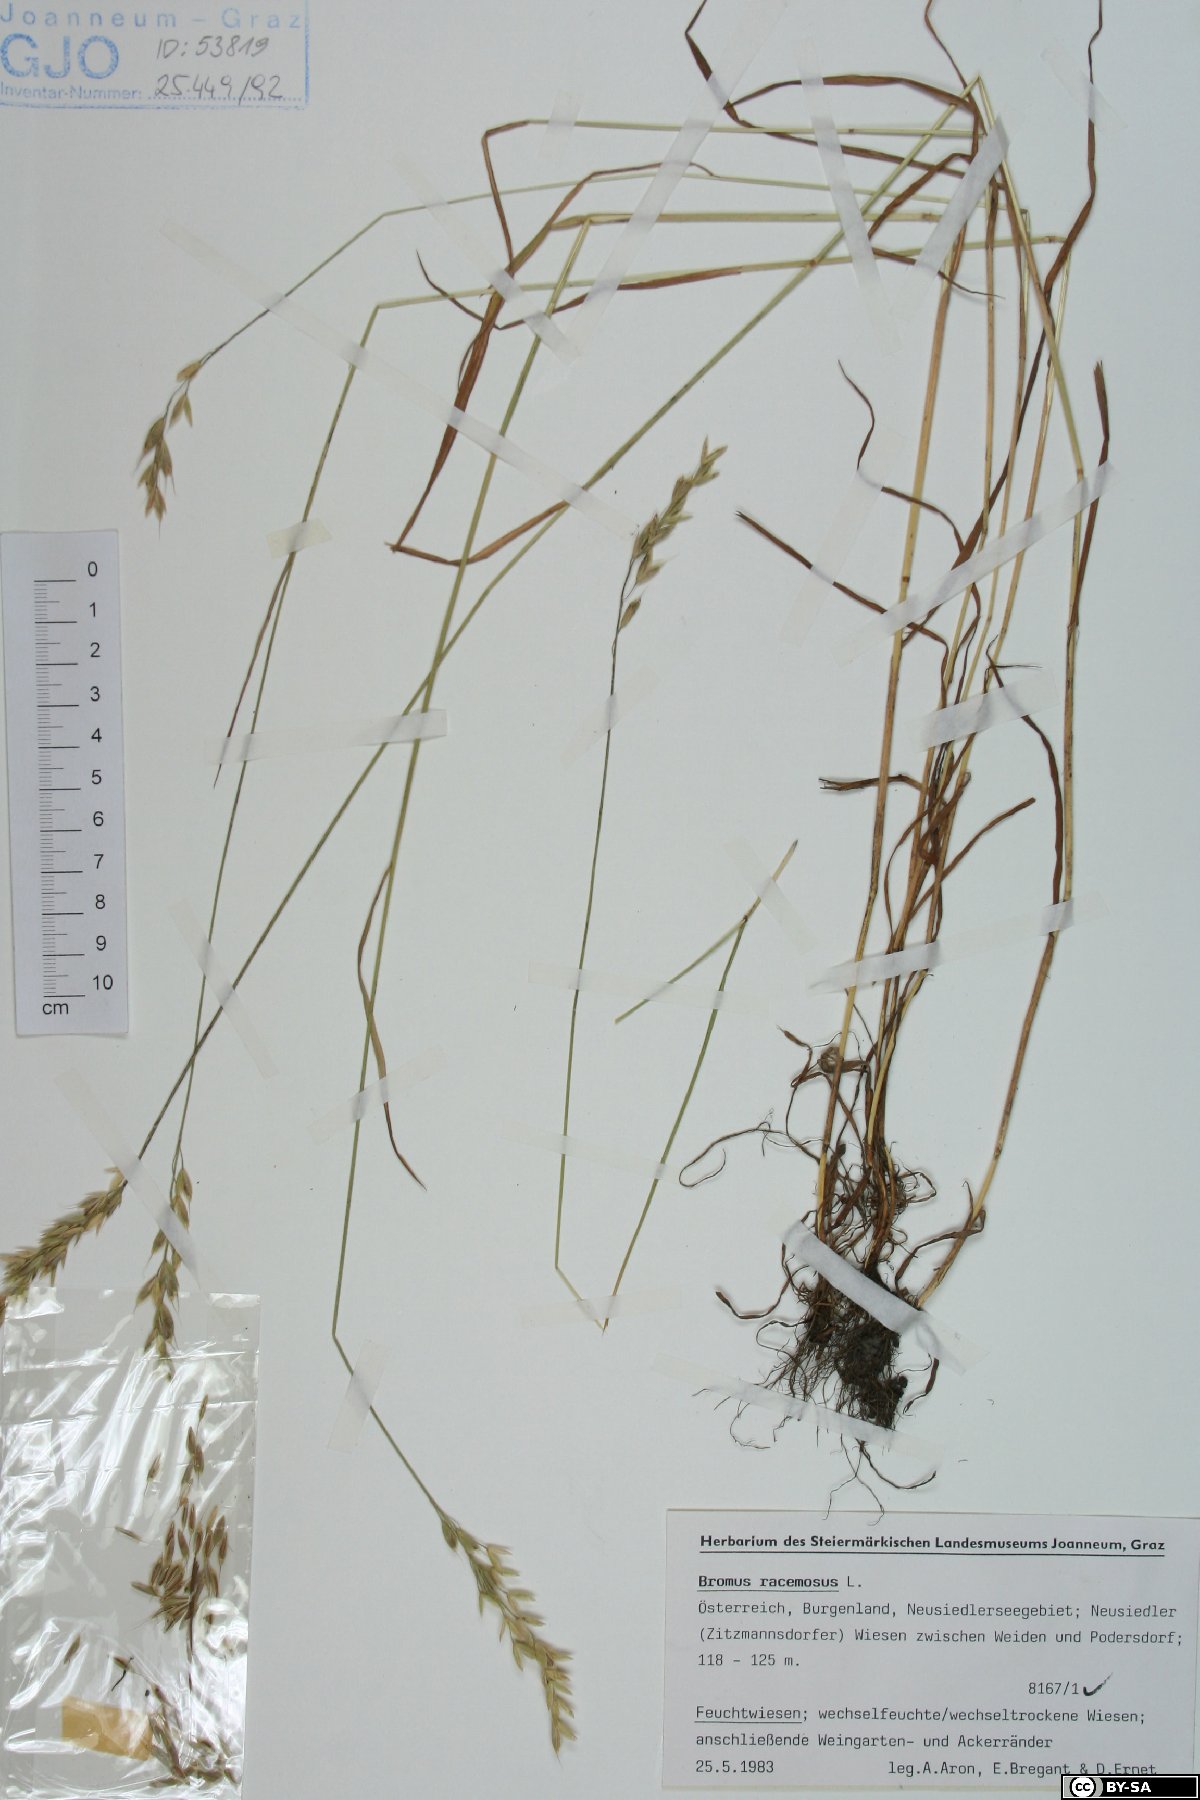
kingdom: Plantae
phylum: Tracheophyta
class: Liliopsida
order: Poales
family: Poaceae
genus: Bromus
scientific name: Bromus racemosus
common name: Bald brome
